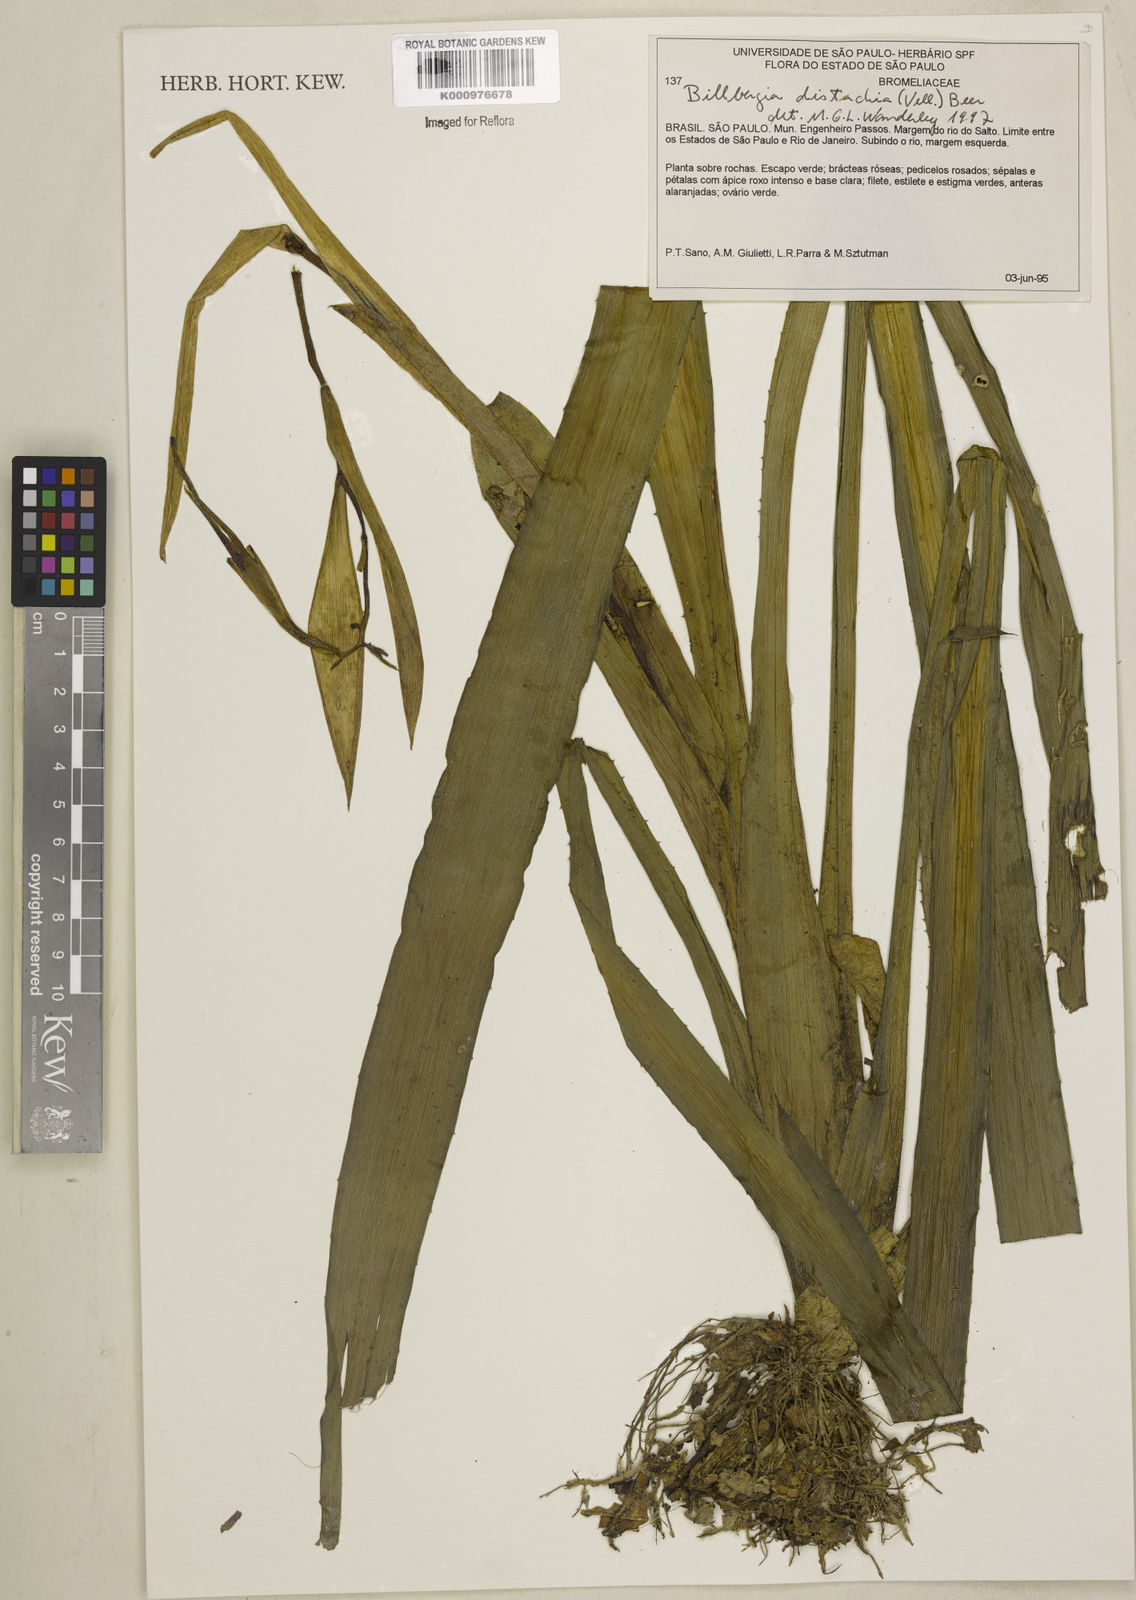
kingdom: Plantae
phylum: Tracheophyta
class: Liliopsida
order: Poales
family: Bromeliaceae
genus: Billbergia
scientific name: Billbergia distachia
